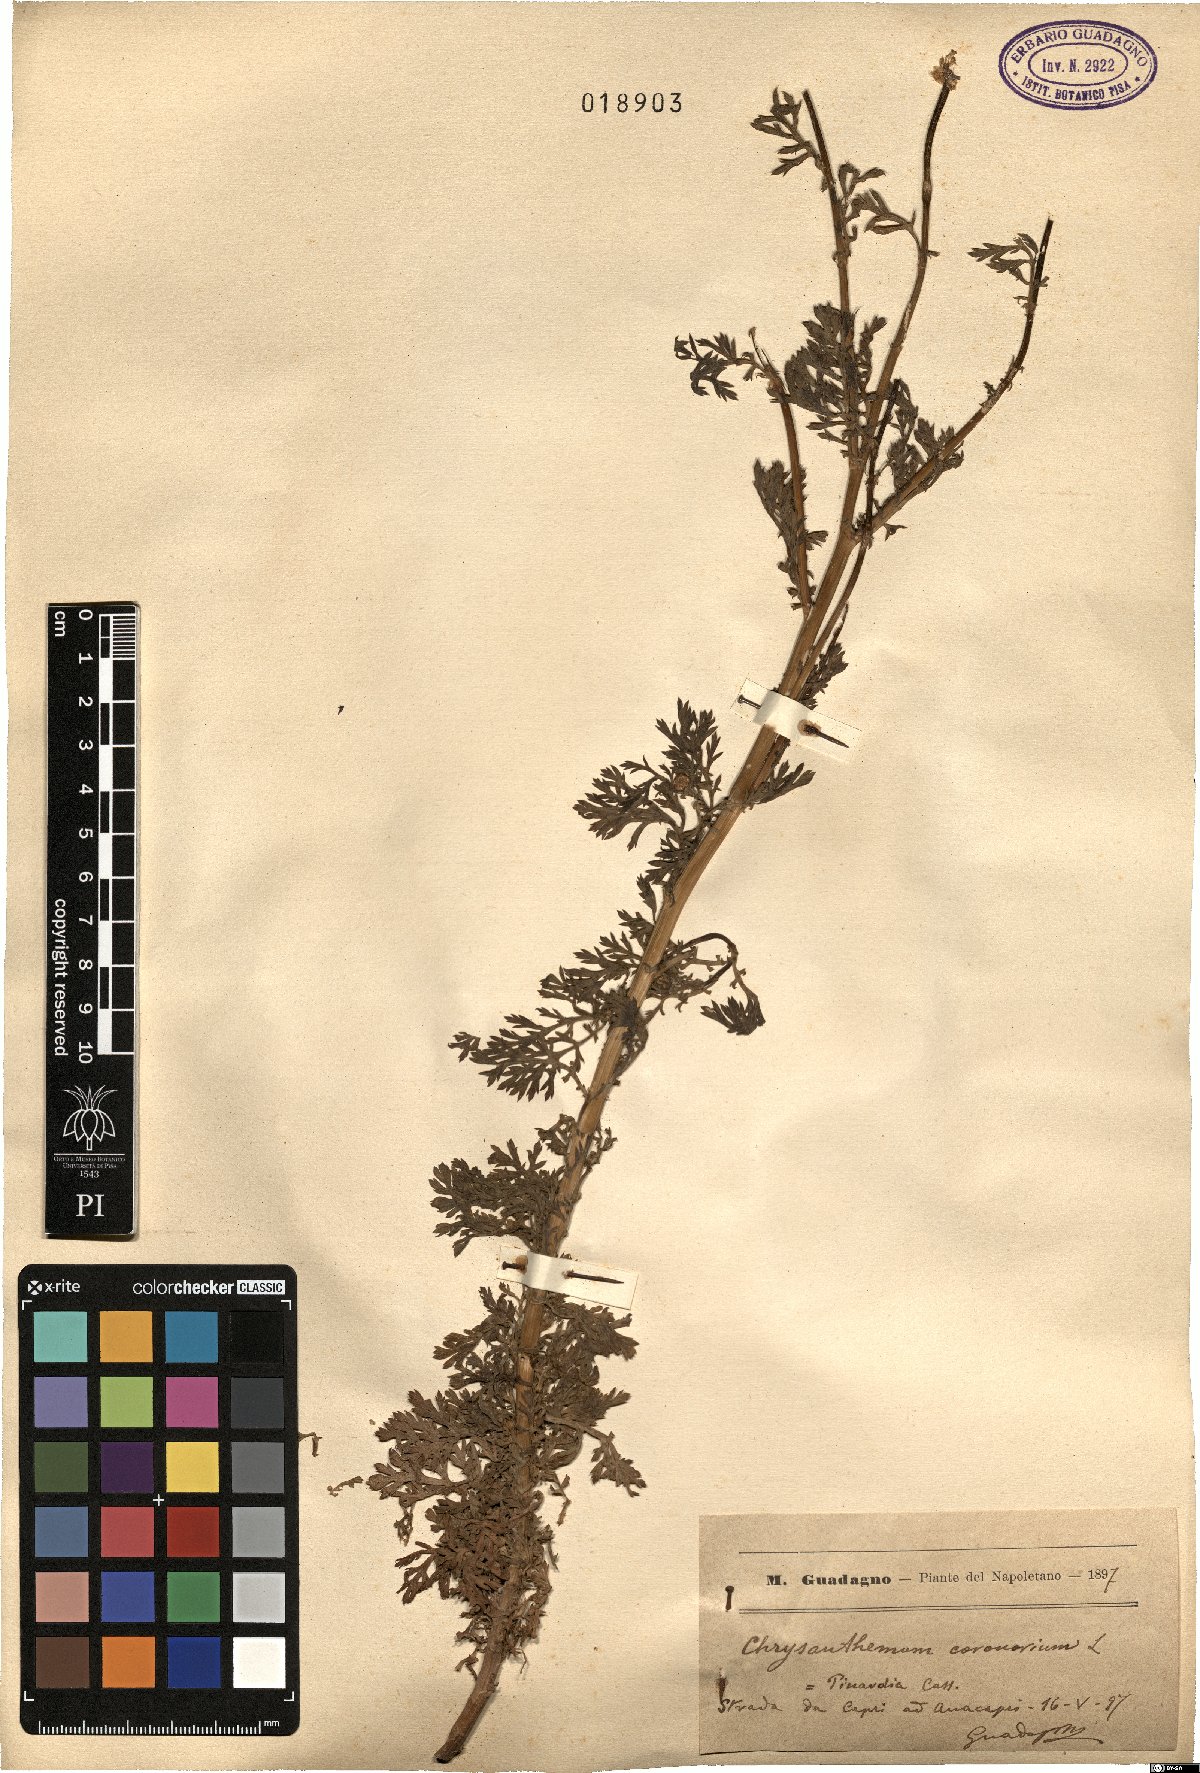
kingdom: Plantae
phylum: Tracheophyta
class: Magnoliopsida
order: Asterales
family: Asteraceae
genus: Glebionis
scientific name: Glebionis coronaria
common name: Crowndaisy
